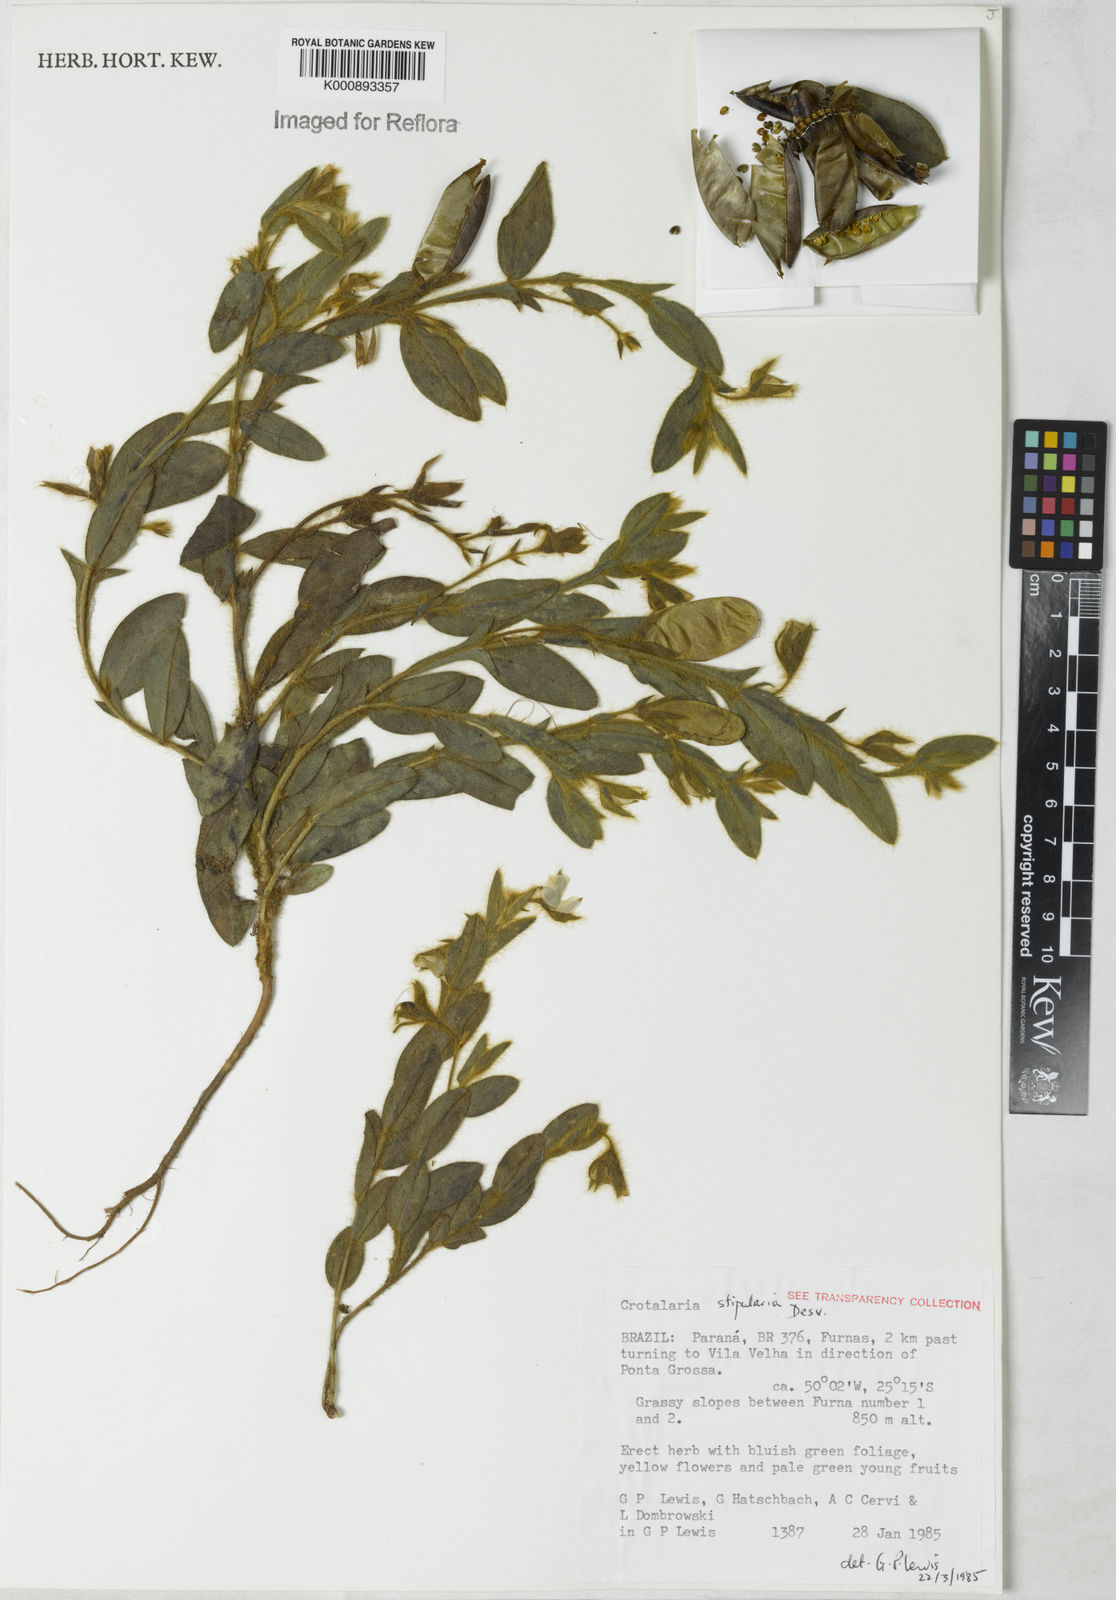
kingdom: Plantae
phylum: Tracheophyta
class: Magnoliopsida
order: Fabales
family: Fabaceae
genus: Crotalaria
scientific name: Crotalaria balansae
